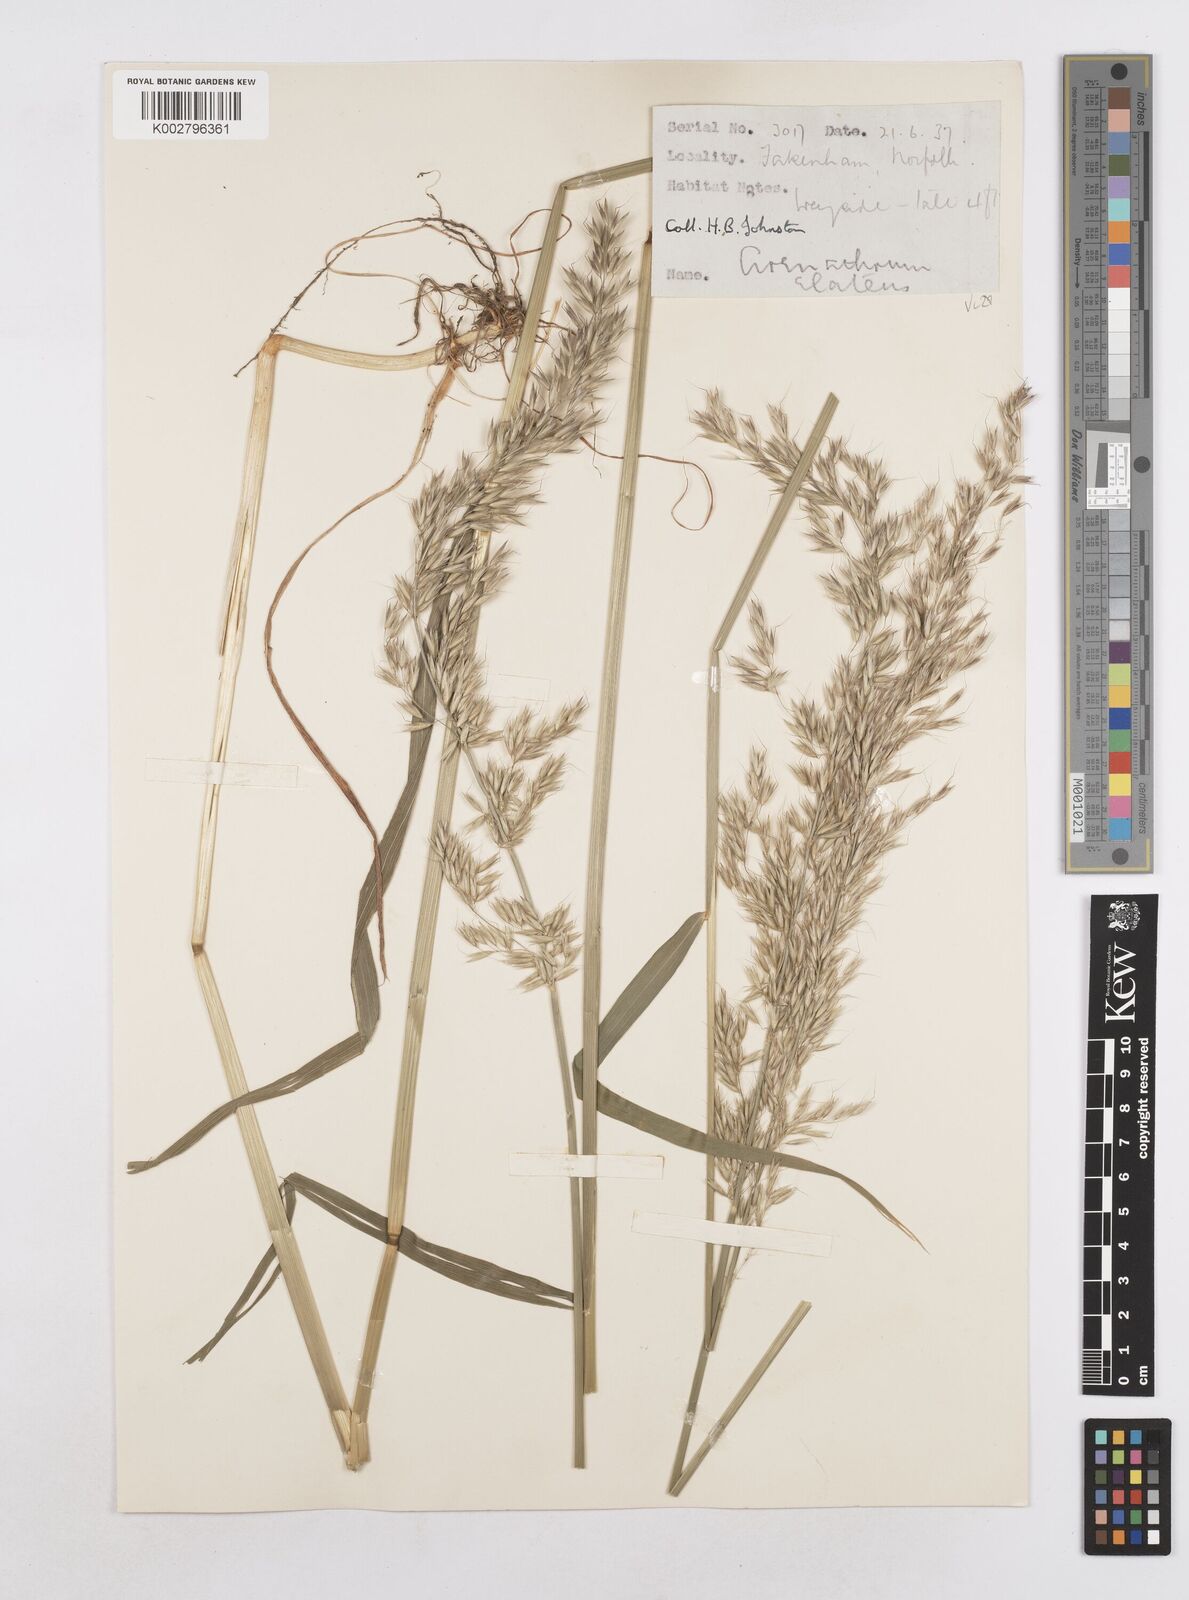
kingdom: Plantae
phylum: Tracheophyta
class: Liliopsida
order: Poales
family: Poaceae
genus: Arrhenatherum
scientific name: Arrhenatherum elatius
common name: Tall oatgrass
